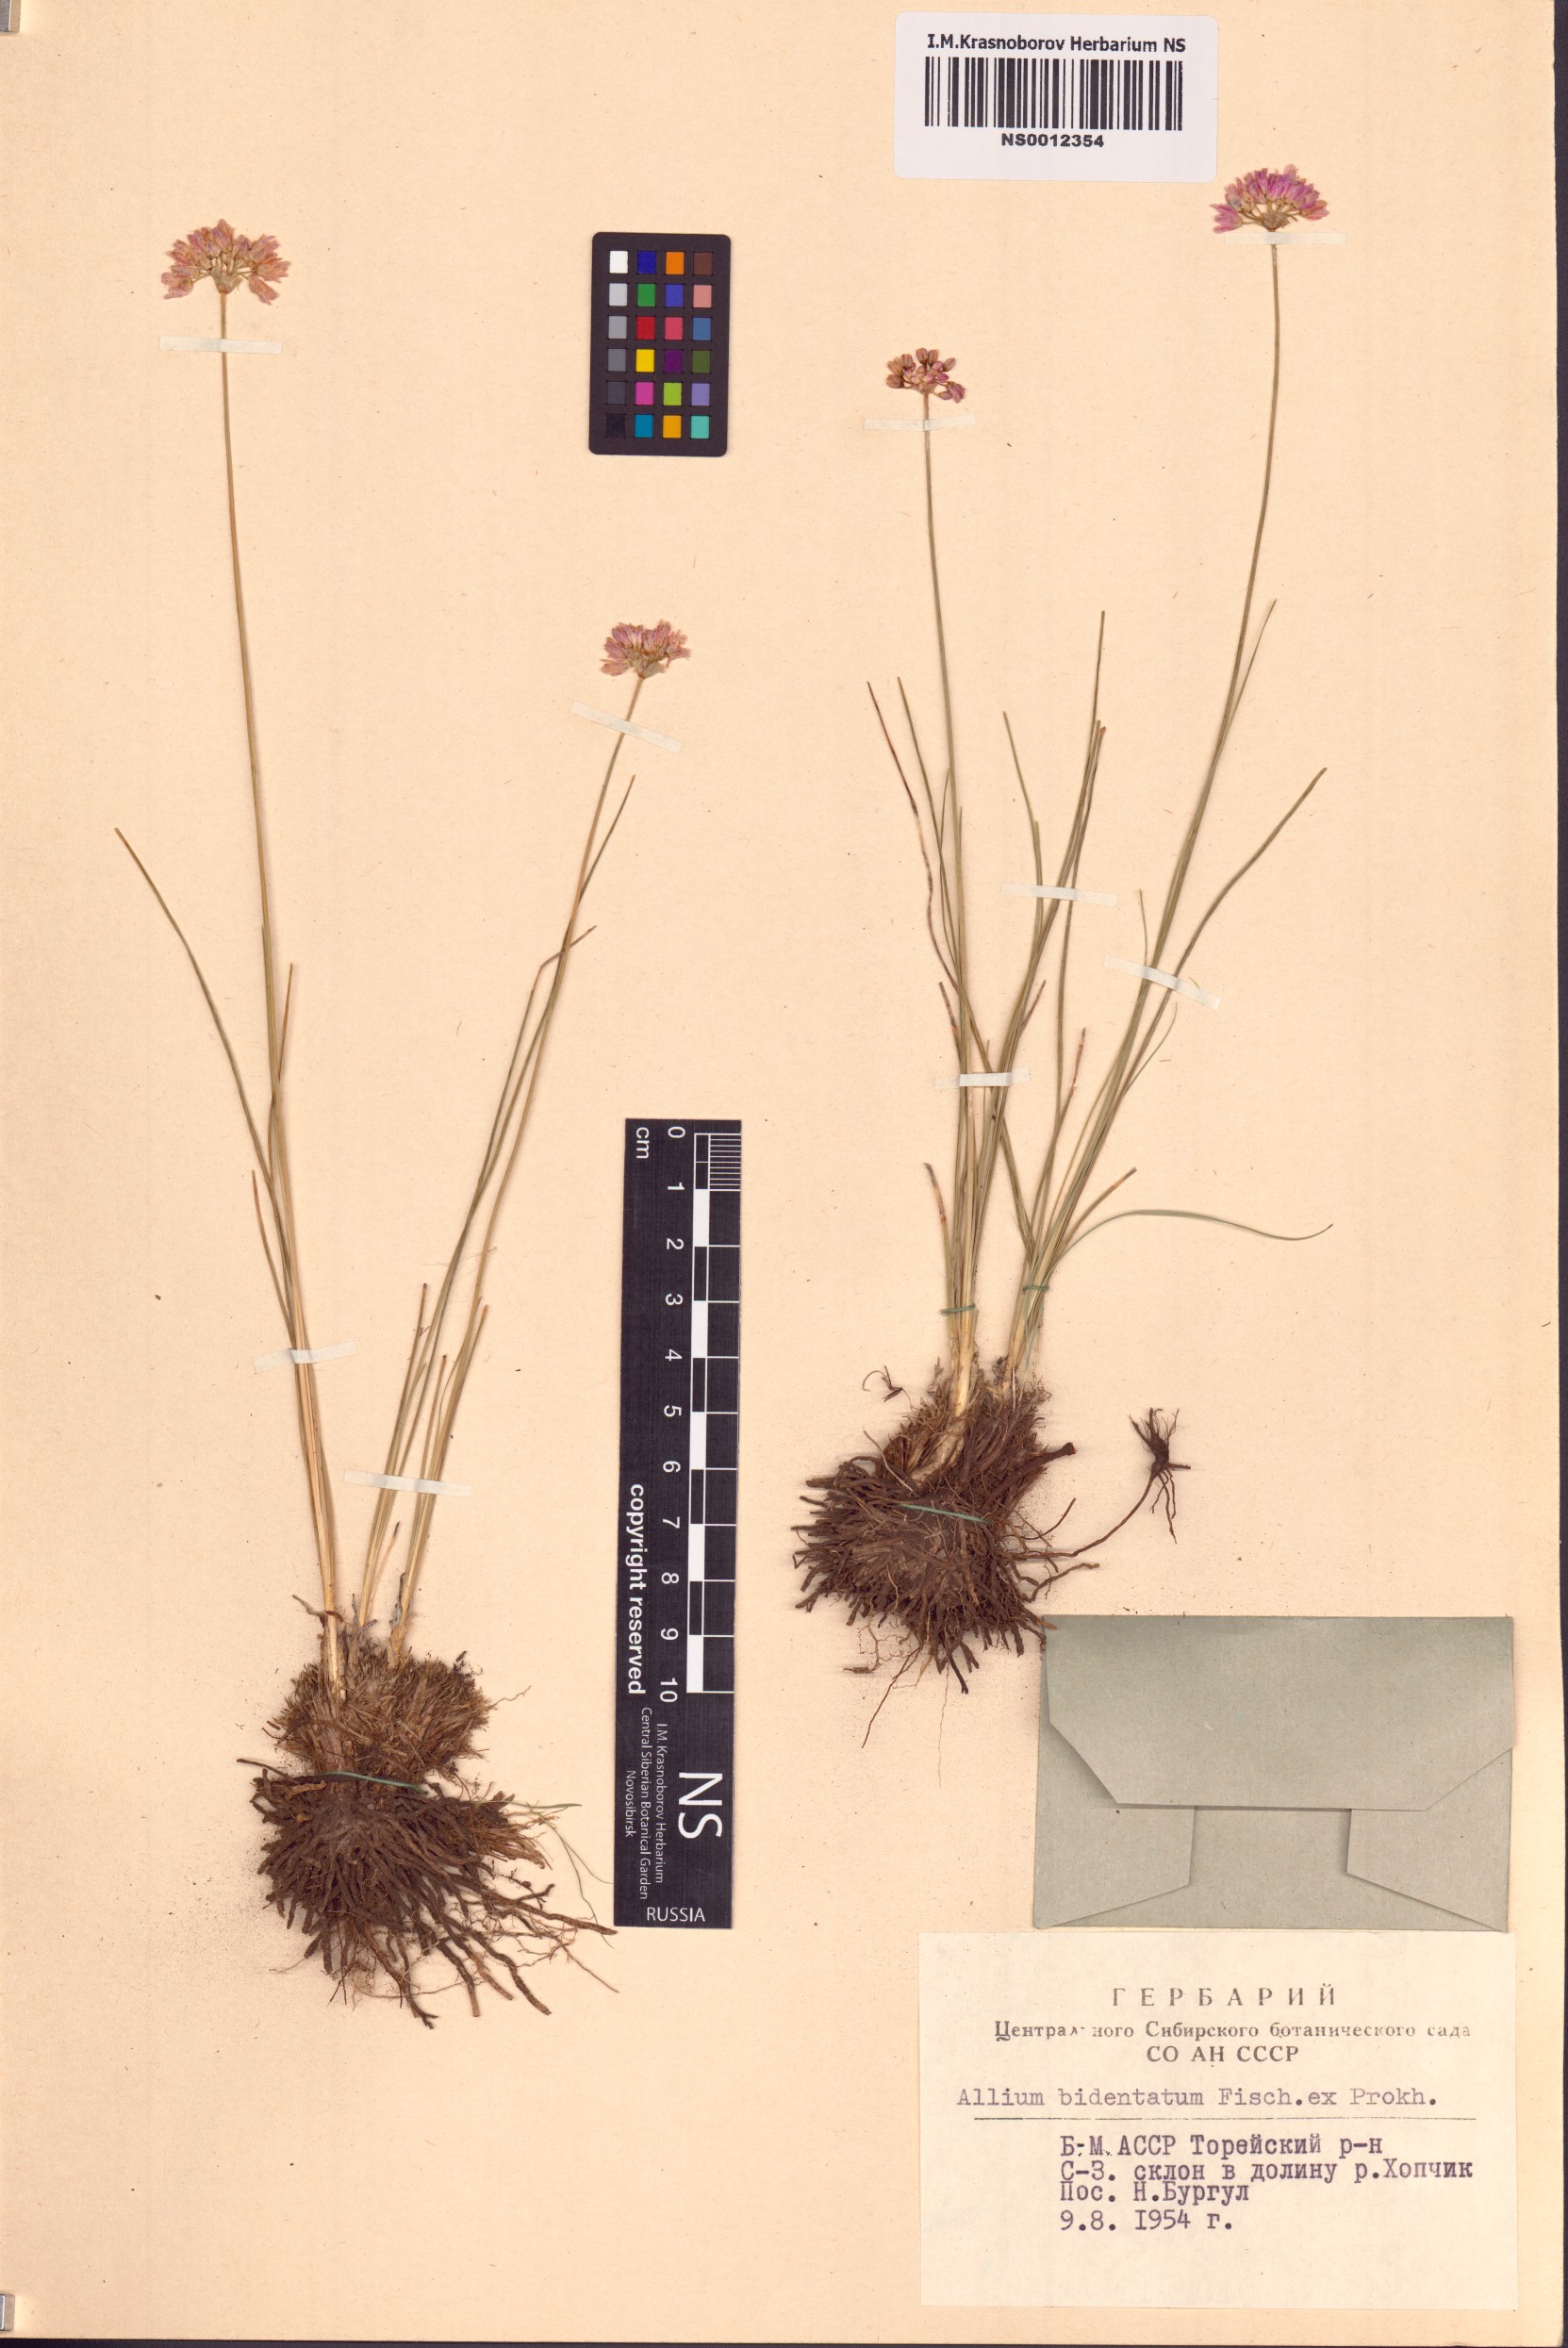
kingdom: Plantae
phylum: Tracheophyta
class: Liliopsida
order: Asparagales
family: Amaryllidaceae
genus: Allium
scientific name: Allium bidentatum
